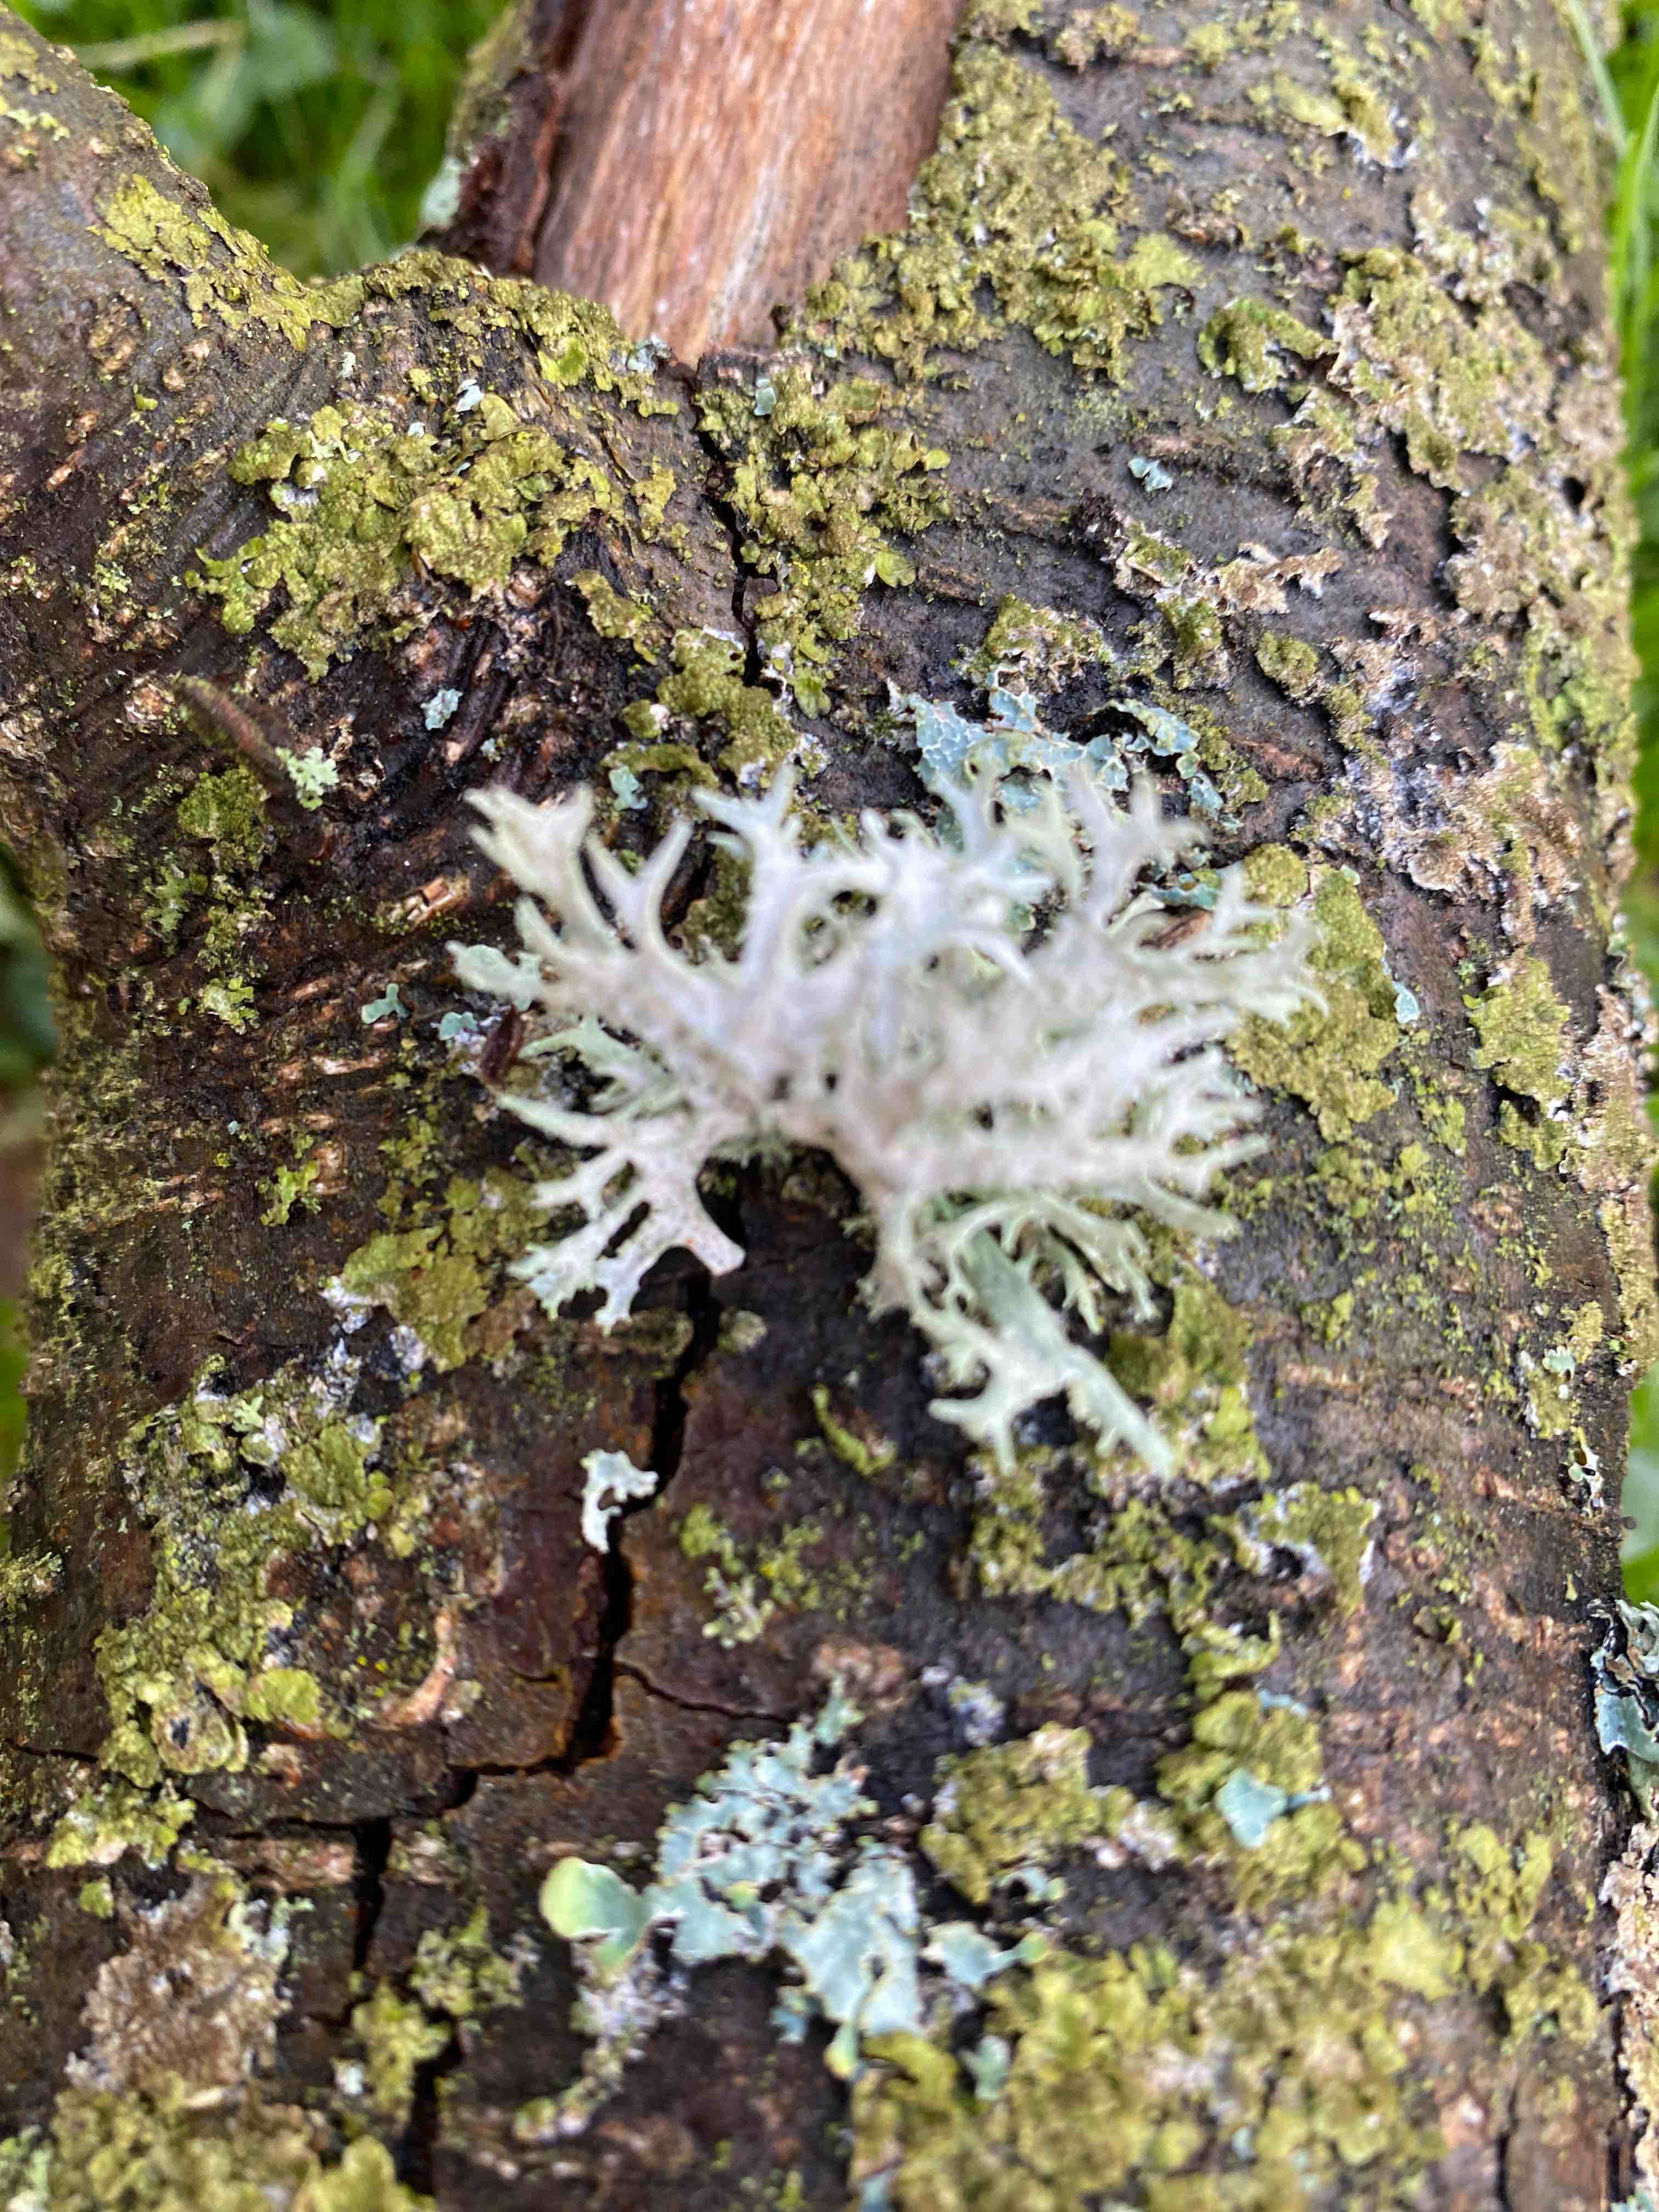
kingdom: Fungi
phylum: Ascomycota
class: Lecanoromycetes
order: Lecanorales
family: Parmeliaceae
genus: Evernia
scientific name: Evernia prunastri
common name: almindelig slåenlav
